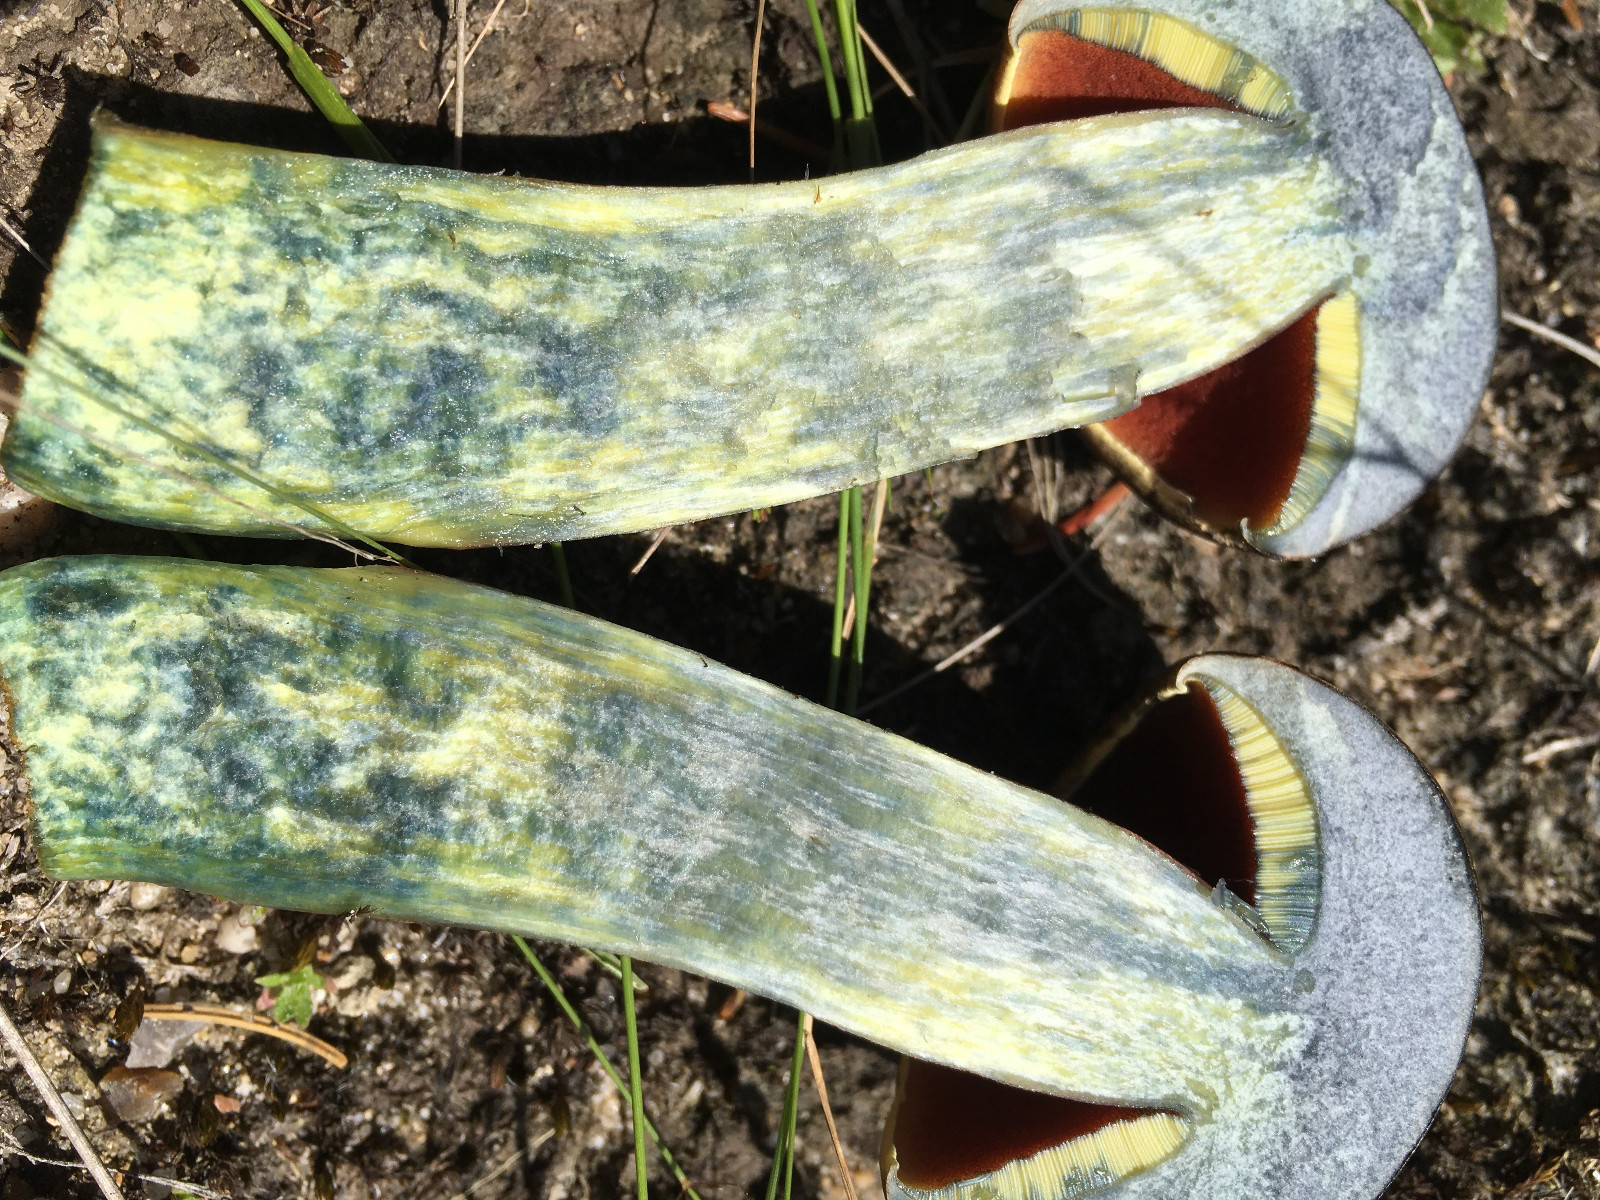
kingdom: Fungi
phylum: Basidiomycota
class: Agaricomycetes
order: Boletales
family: Boletaceae
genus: Neoboletus
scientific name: Neoboletus erythropus
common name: punktstokket indigorørhat
